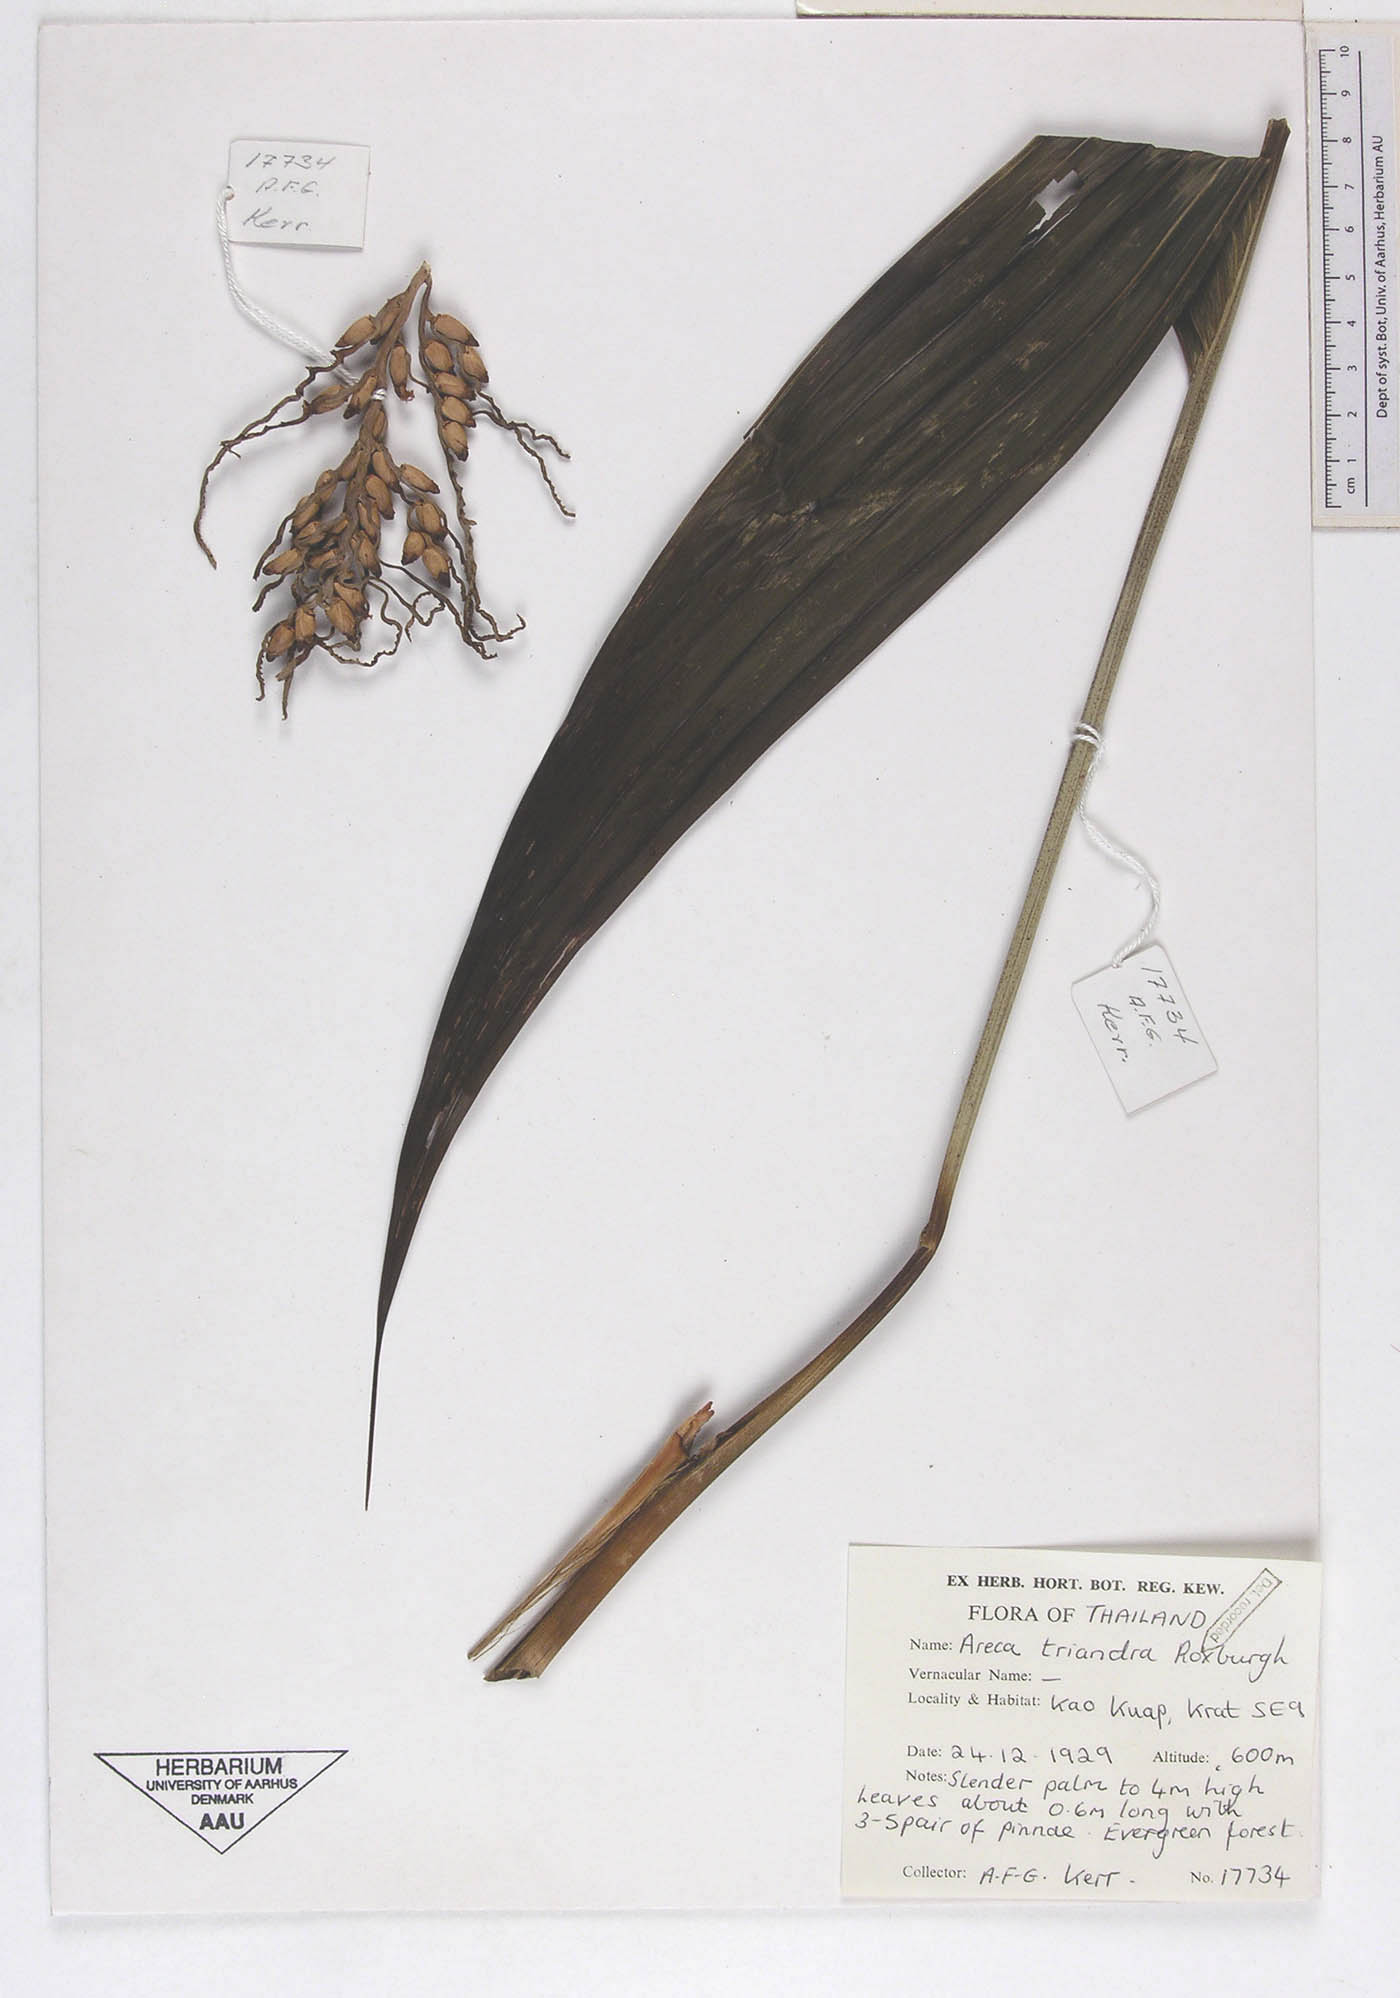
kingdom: Plantae
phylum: Tracheophyta
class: Liliopsida
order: Arecales
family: Arecaceae
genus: Areca
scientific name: Areca triandra
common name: Australian areca palm
